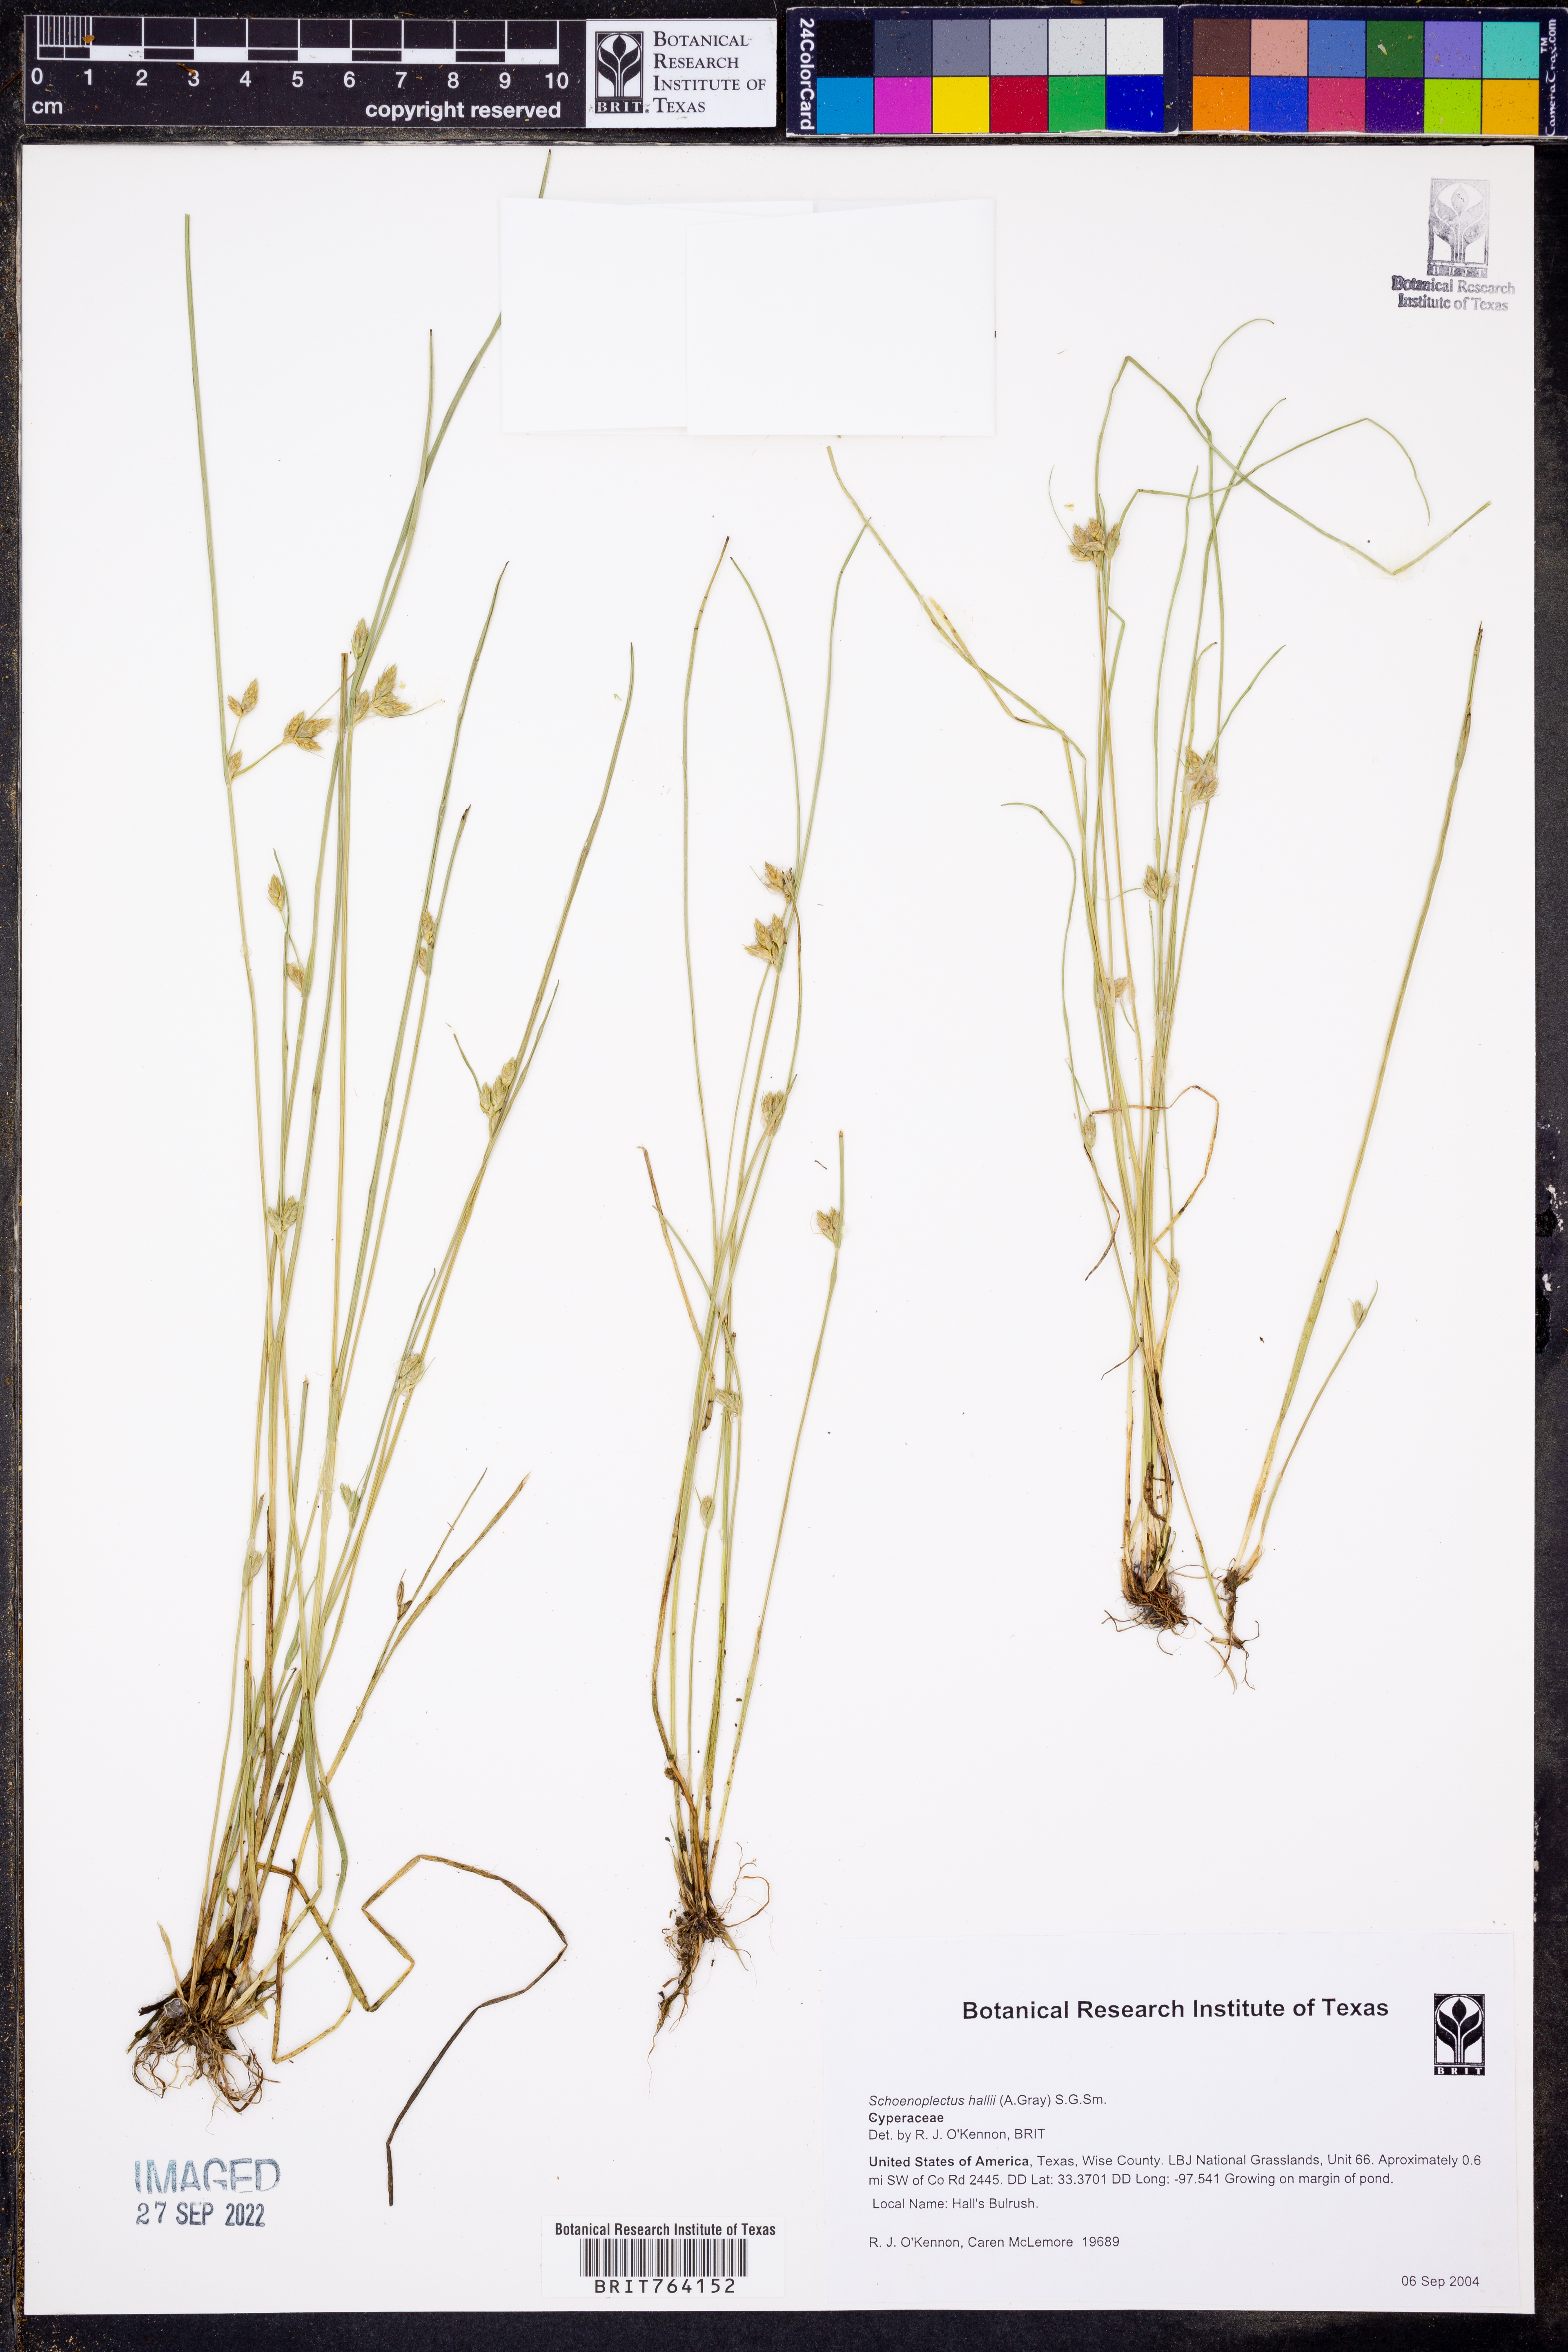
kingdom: Plantae
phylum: Tracheophyta
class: Liliopsida
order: Poales
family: Cyperaceae
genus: Schoenoplectiella
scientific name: Schoenoplectiella hallii
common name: Hall's bullrush
